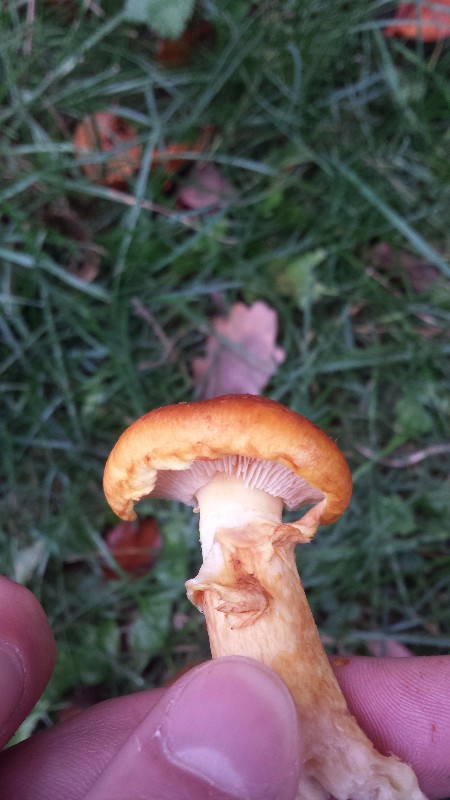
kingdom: Fungi
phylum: Basidiomycota
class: Agaricomycetes
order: Agaricales
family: Hymenogastraceae
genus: Gymnopilus
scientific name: Gymnopilus spectabilis
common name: fibret flammehat
